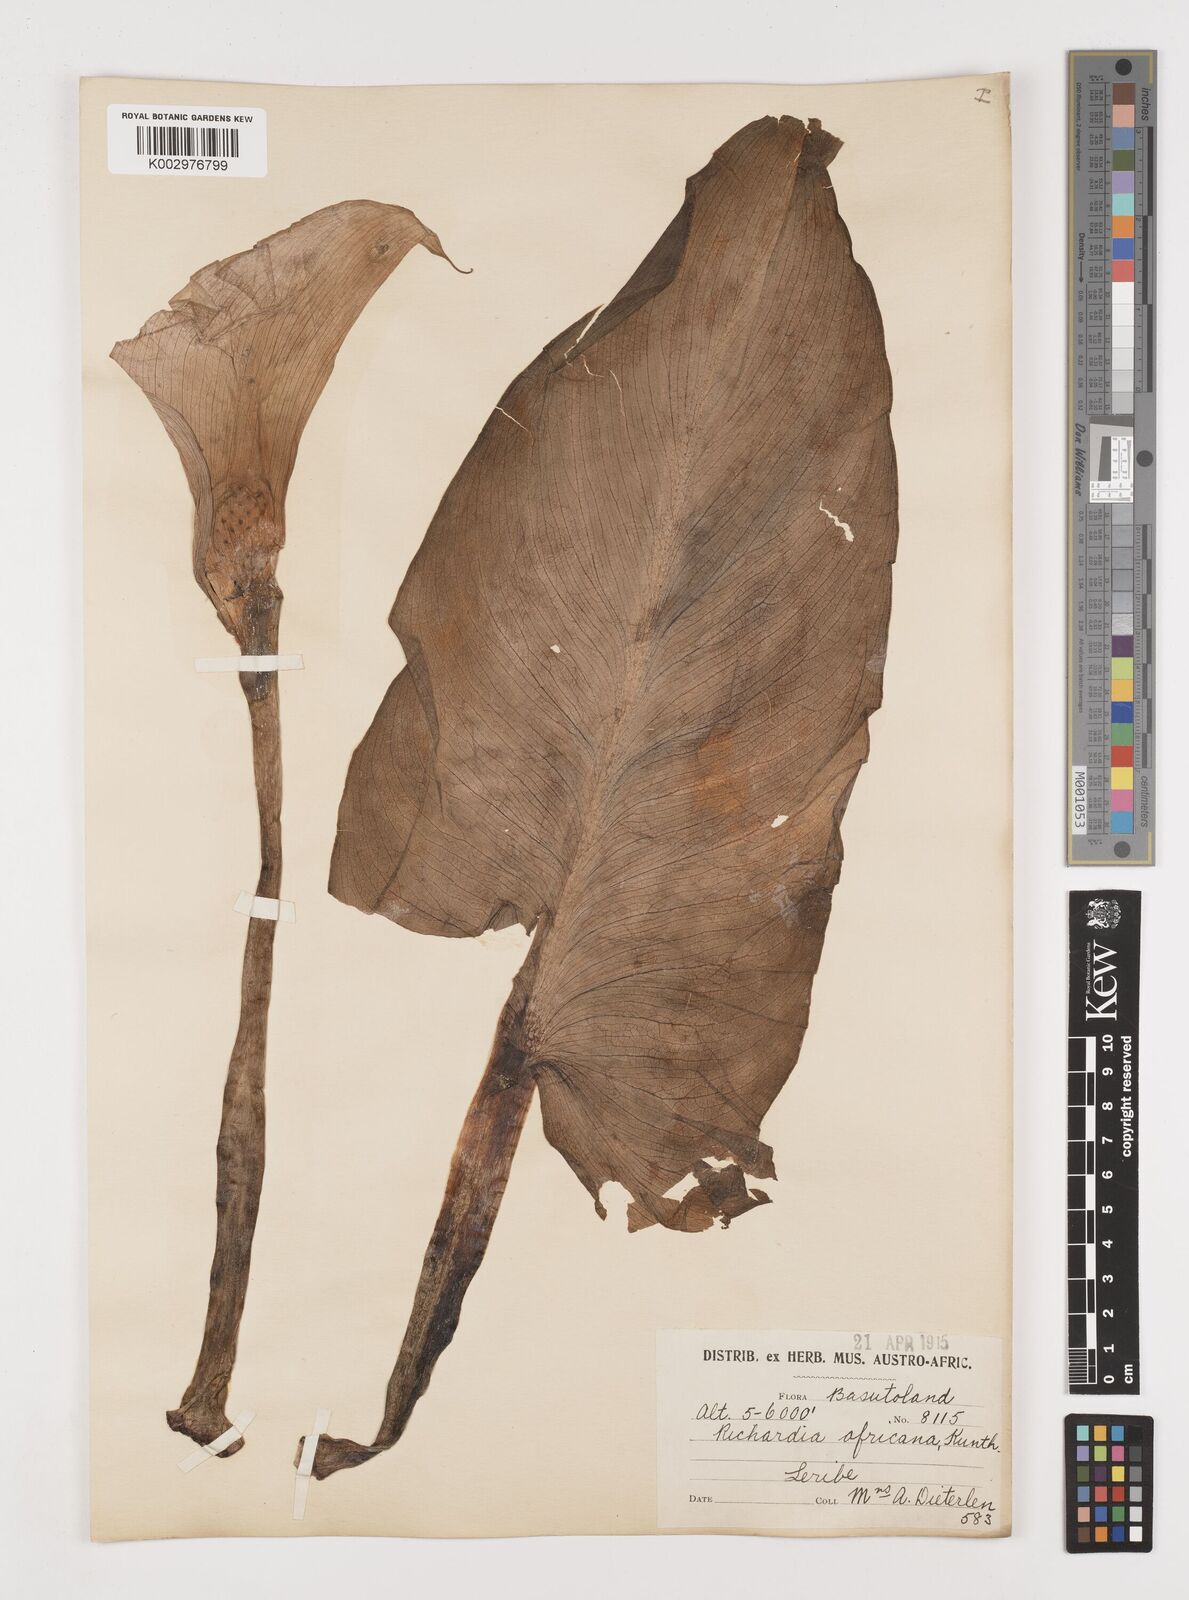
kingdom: Plantae
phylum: Tracheophyta
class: Liliopsida
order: Alismatales
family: Araceae
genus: Zantedeschia
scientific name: Zantedeschia aethiopica
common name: Altar-lily
